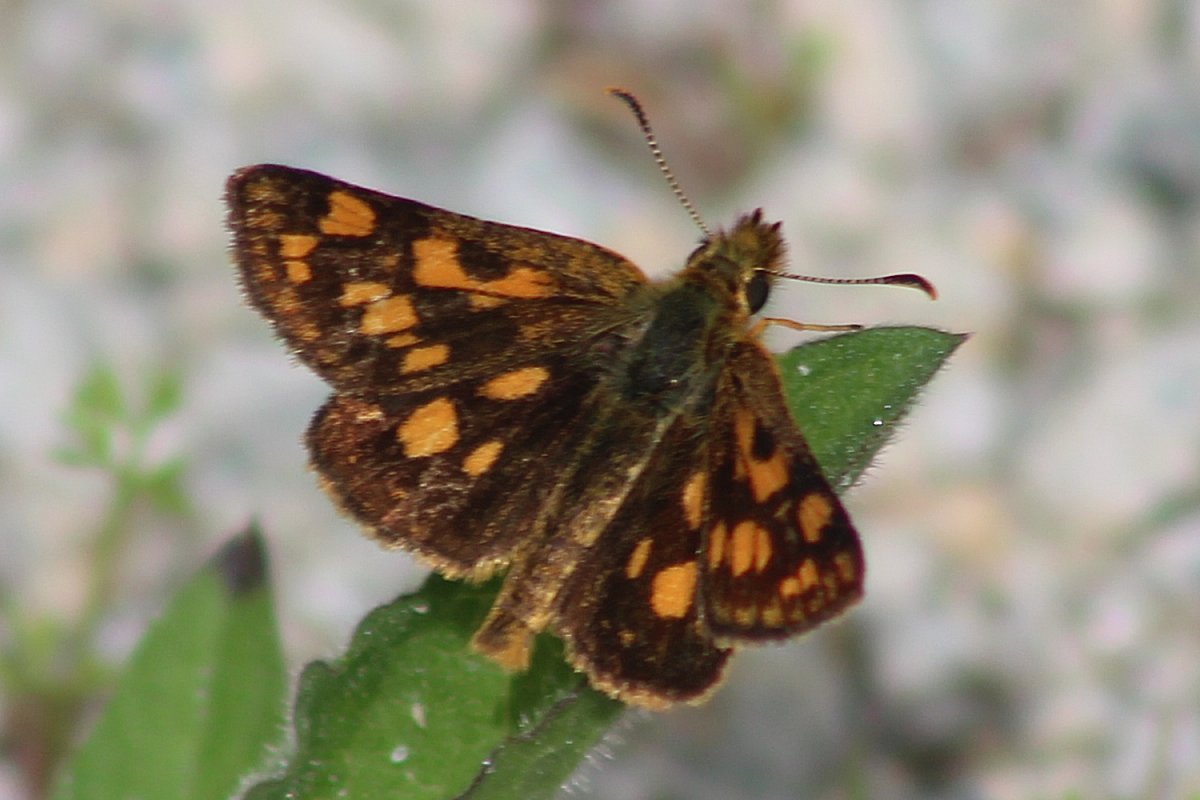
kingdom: Animalia
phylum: Arthropoda
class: Insecta
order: Lepidoptera
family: Hesperiidae
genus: Carterocephalus
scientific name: Carterocephalus palaemon
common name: Chequered Skipper
